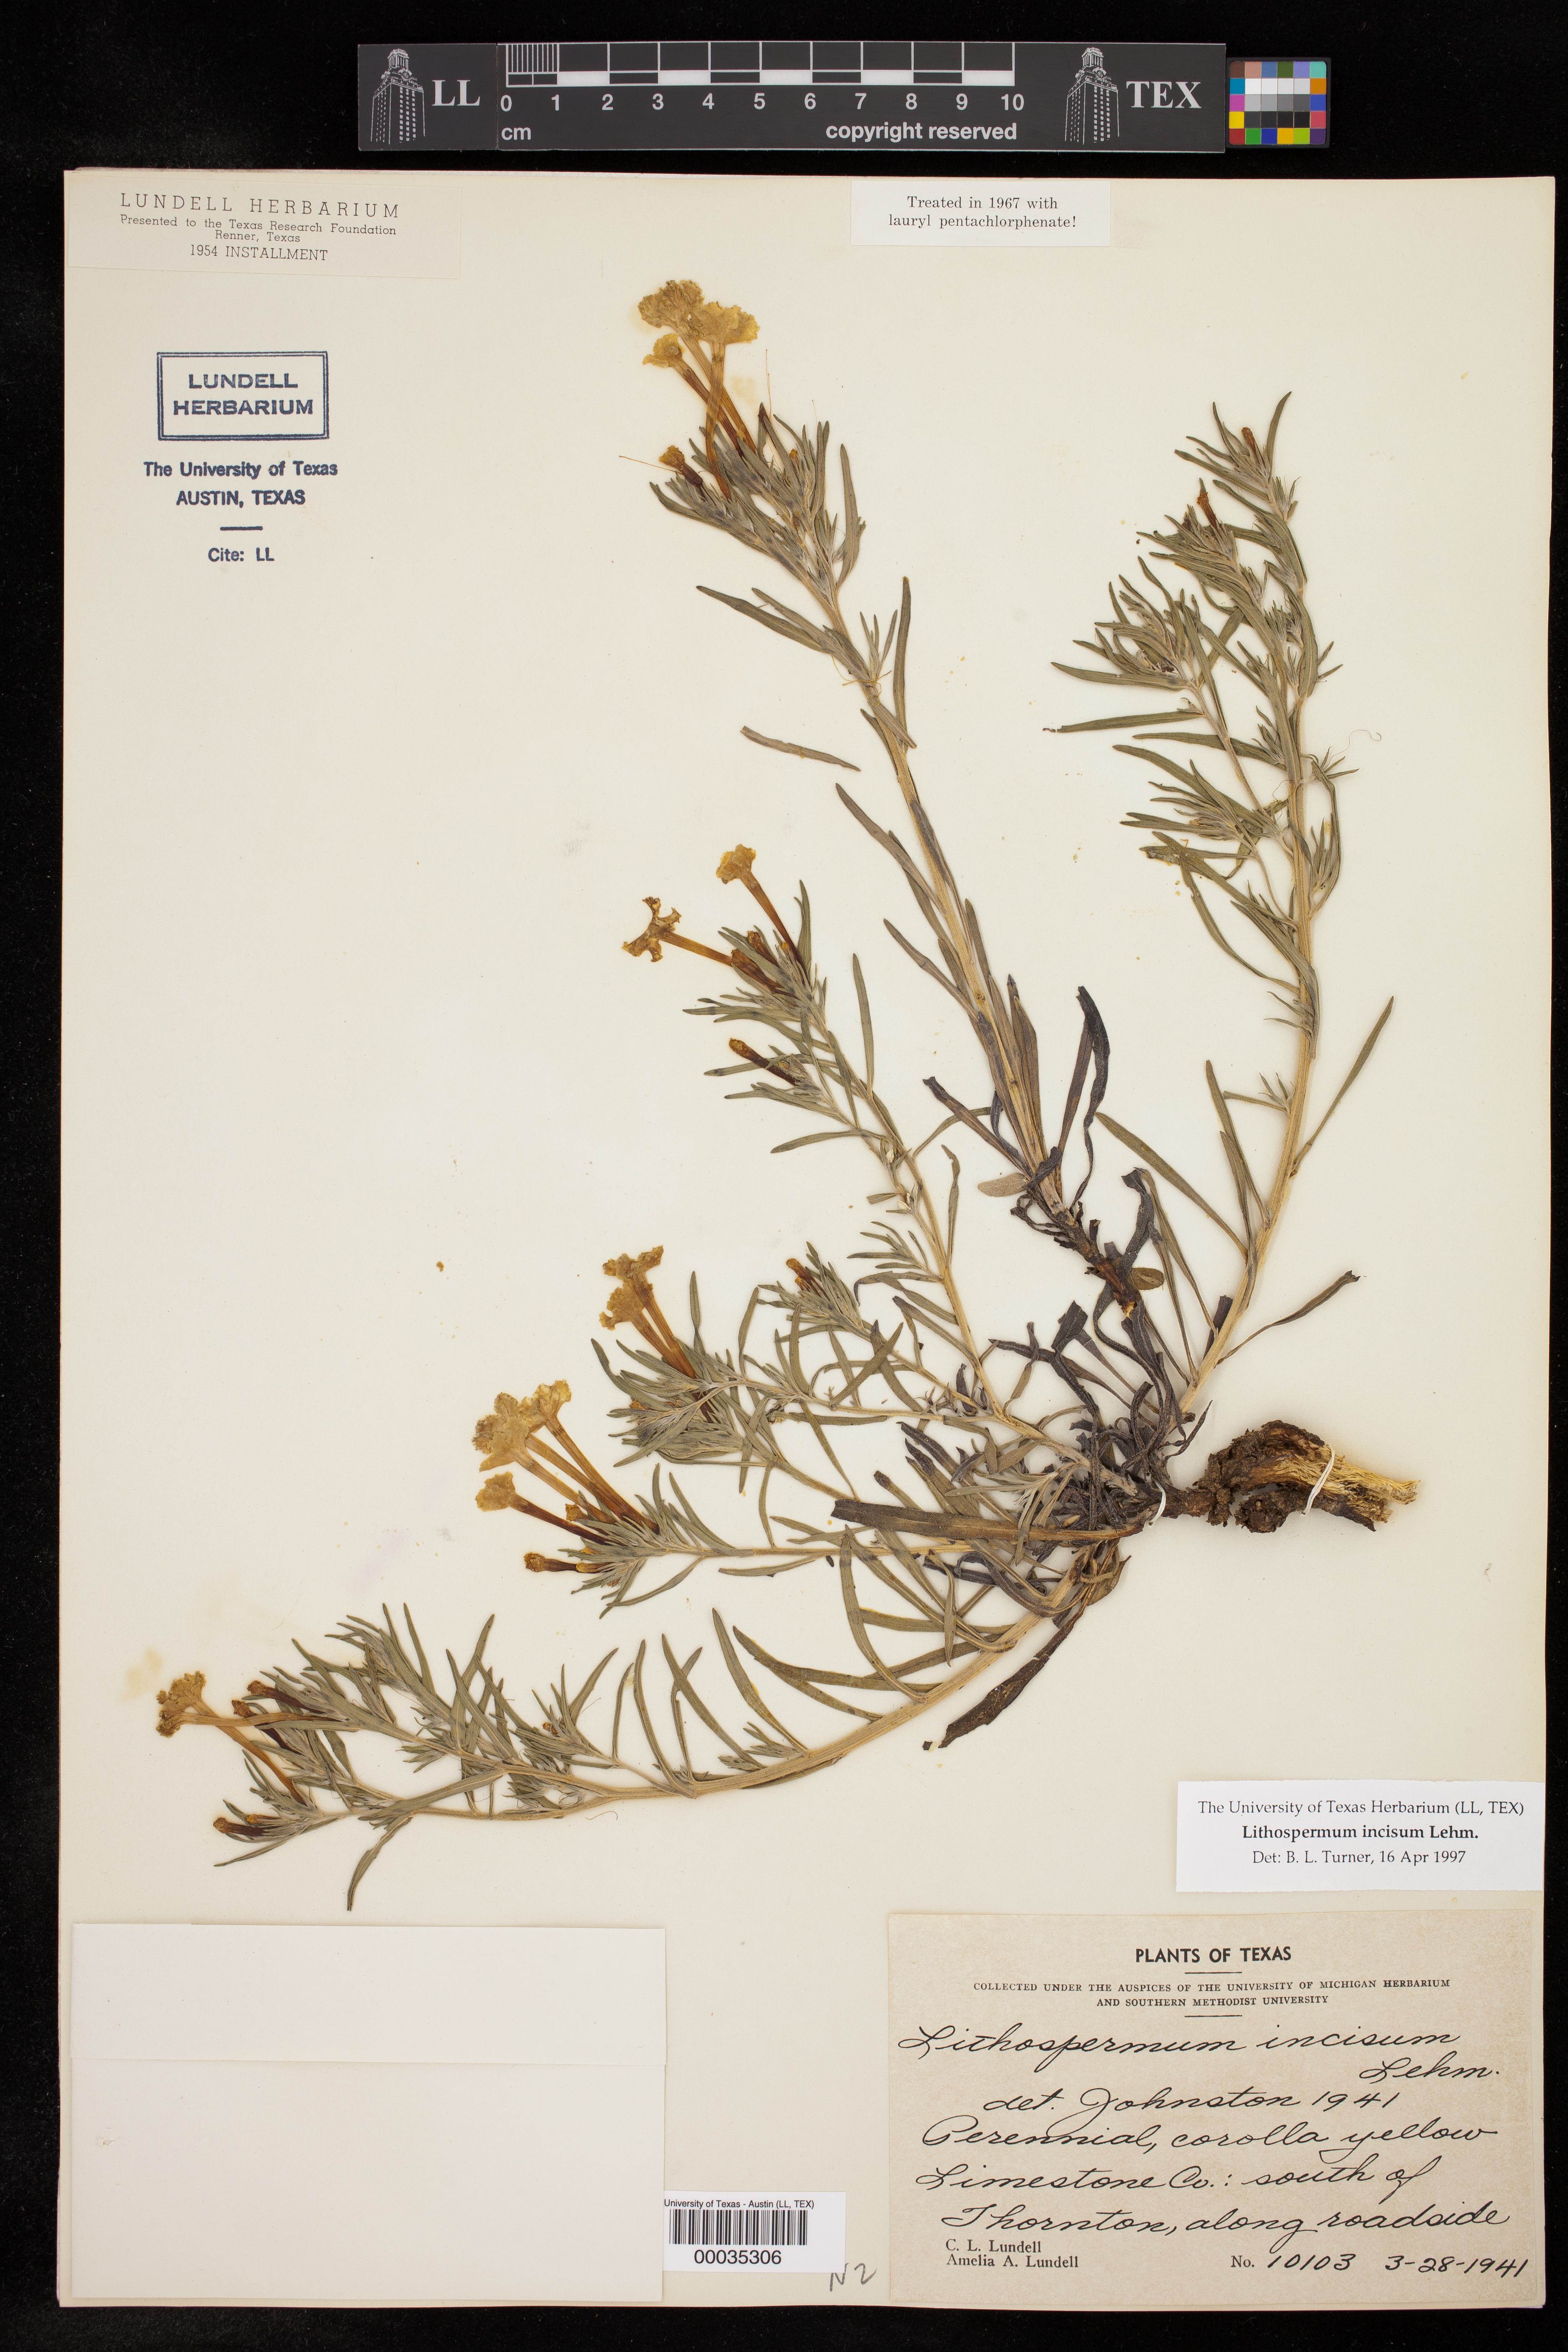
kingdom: Plantae
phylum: Tracheophyta
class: Magnoliopsida
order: Boraginales
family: Boraginaceae
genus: Lithospermum
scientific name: Lithospermum incisum
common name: Fringed gromwell
